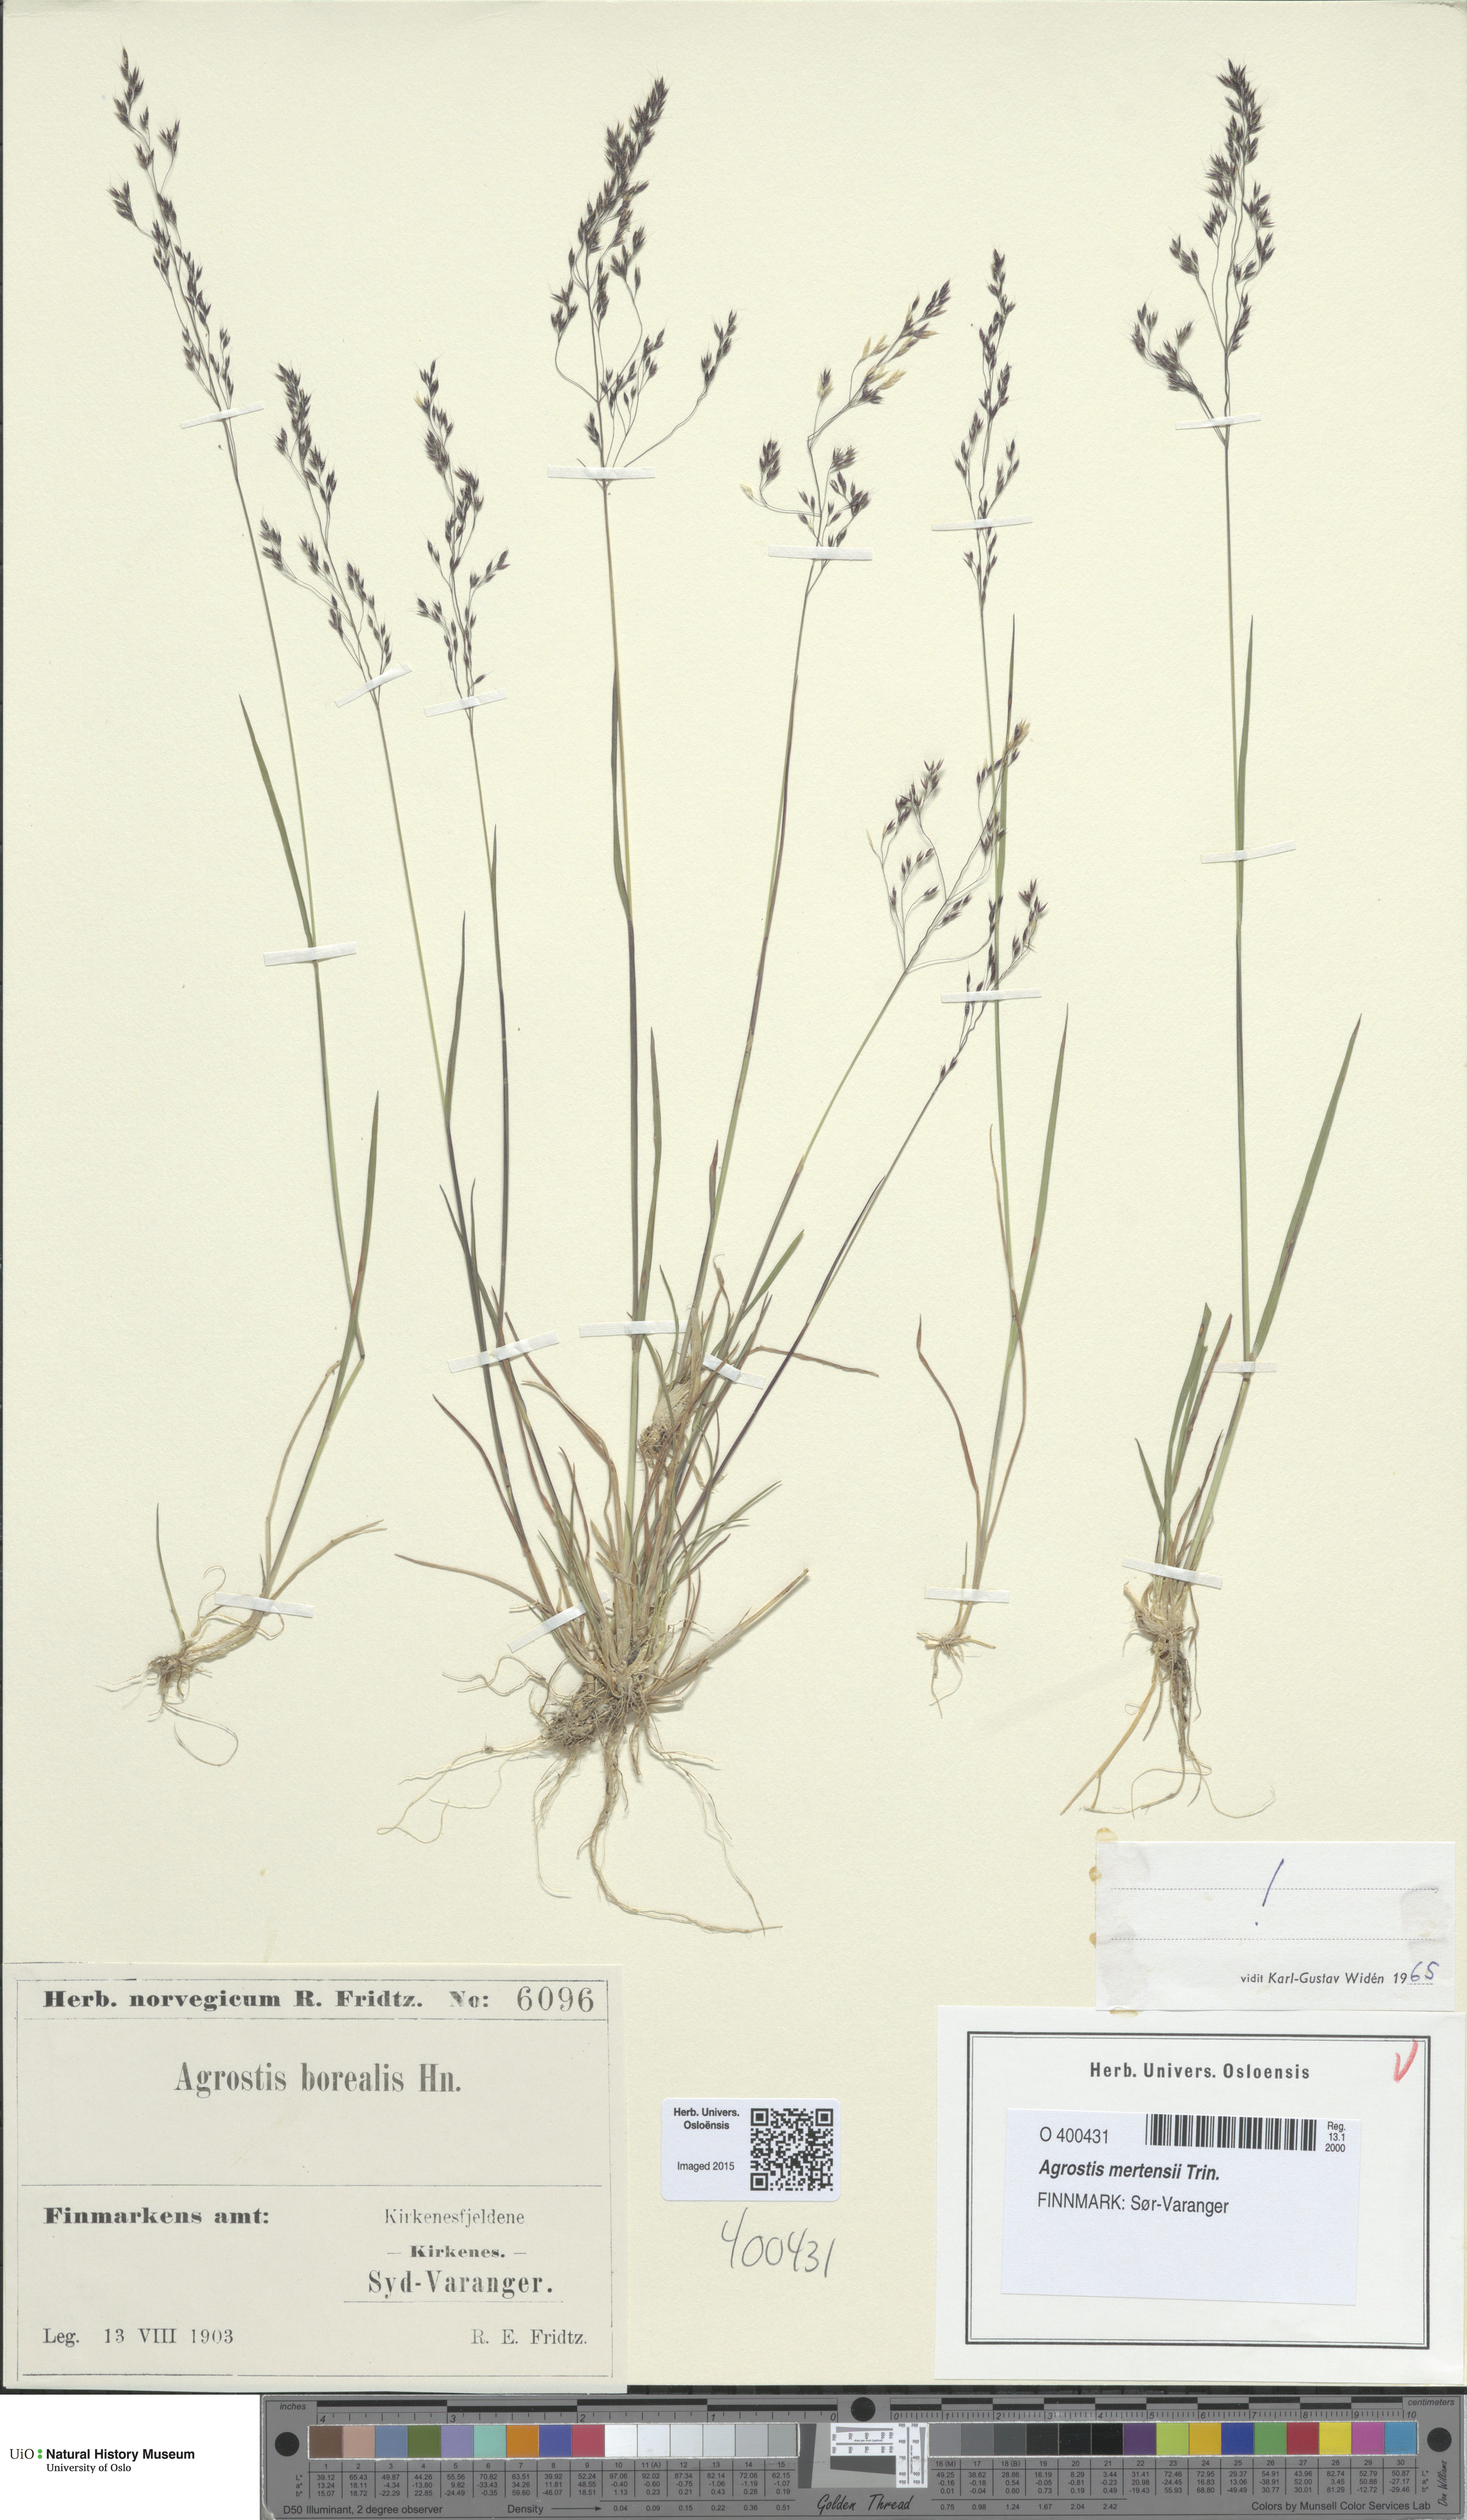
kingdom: Plantae
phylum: Tracheophyta
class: Liliopsida
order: Poales
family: Poaceae
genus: Agrostis
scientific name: Agrostis mertensii
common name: Northern bent
